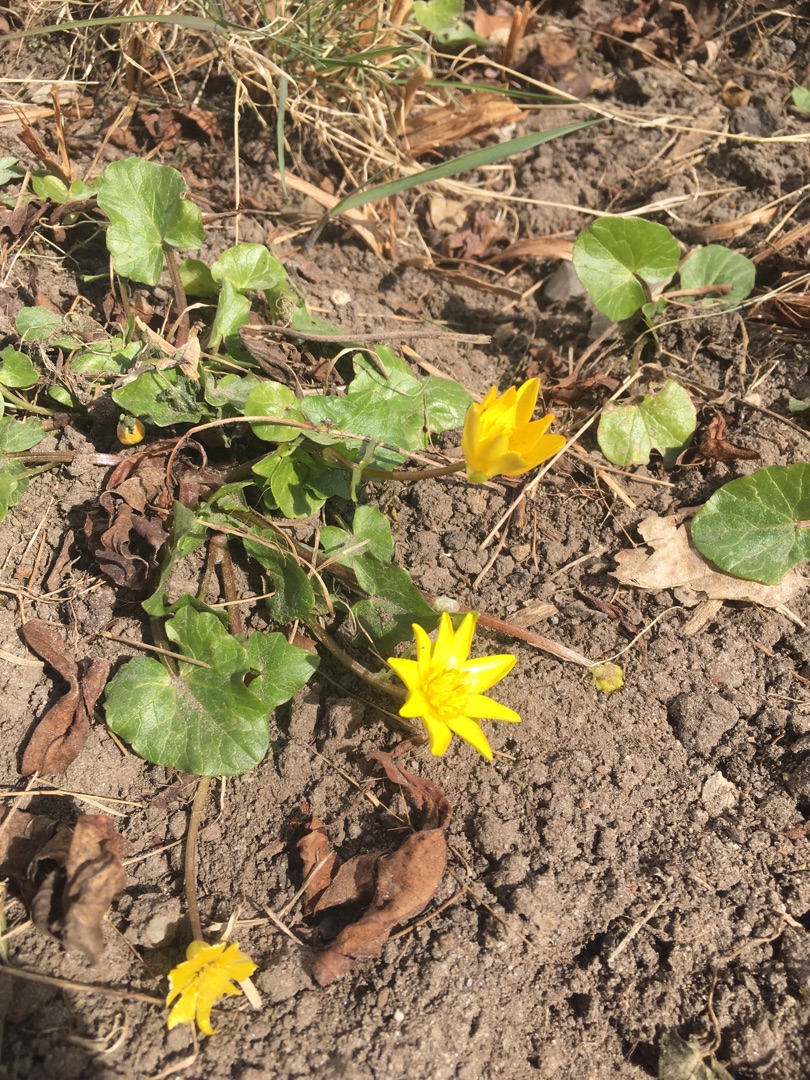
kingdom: Plantae
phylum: Tracheophyta
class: Magnoliopsida
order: Ranunculales
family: Ranunculaceae
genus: Ficaria
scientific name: Ficaria verna
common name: Vorterod
